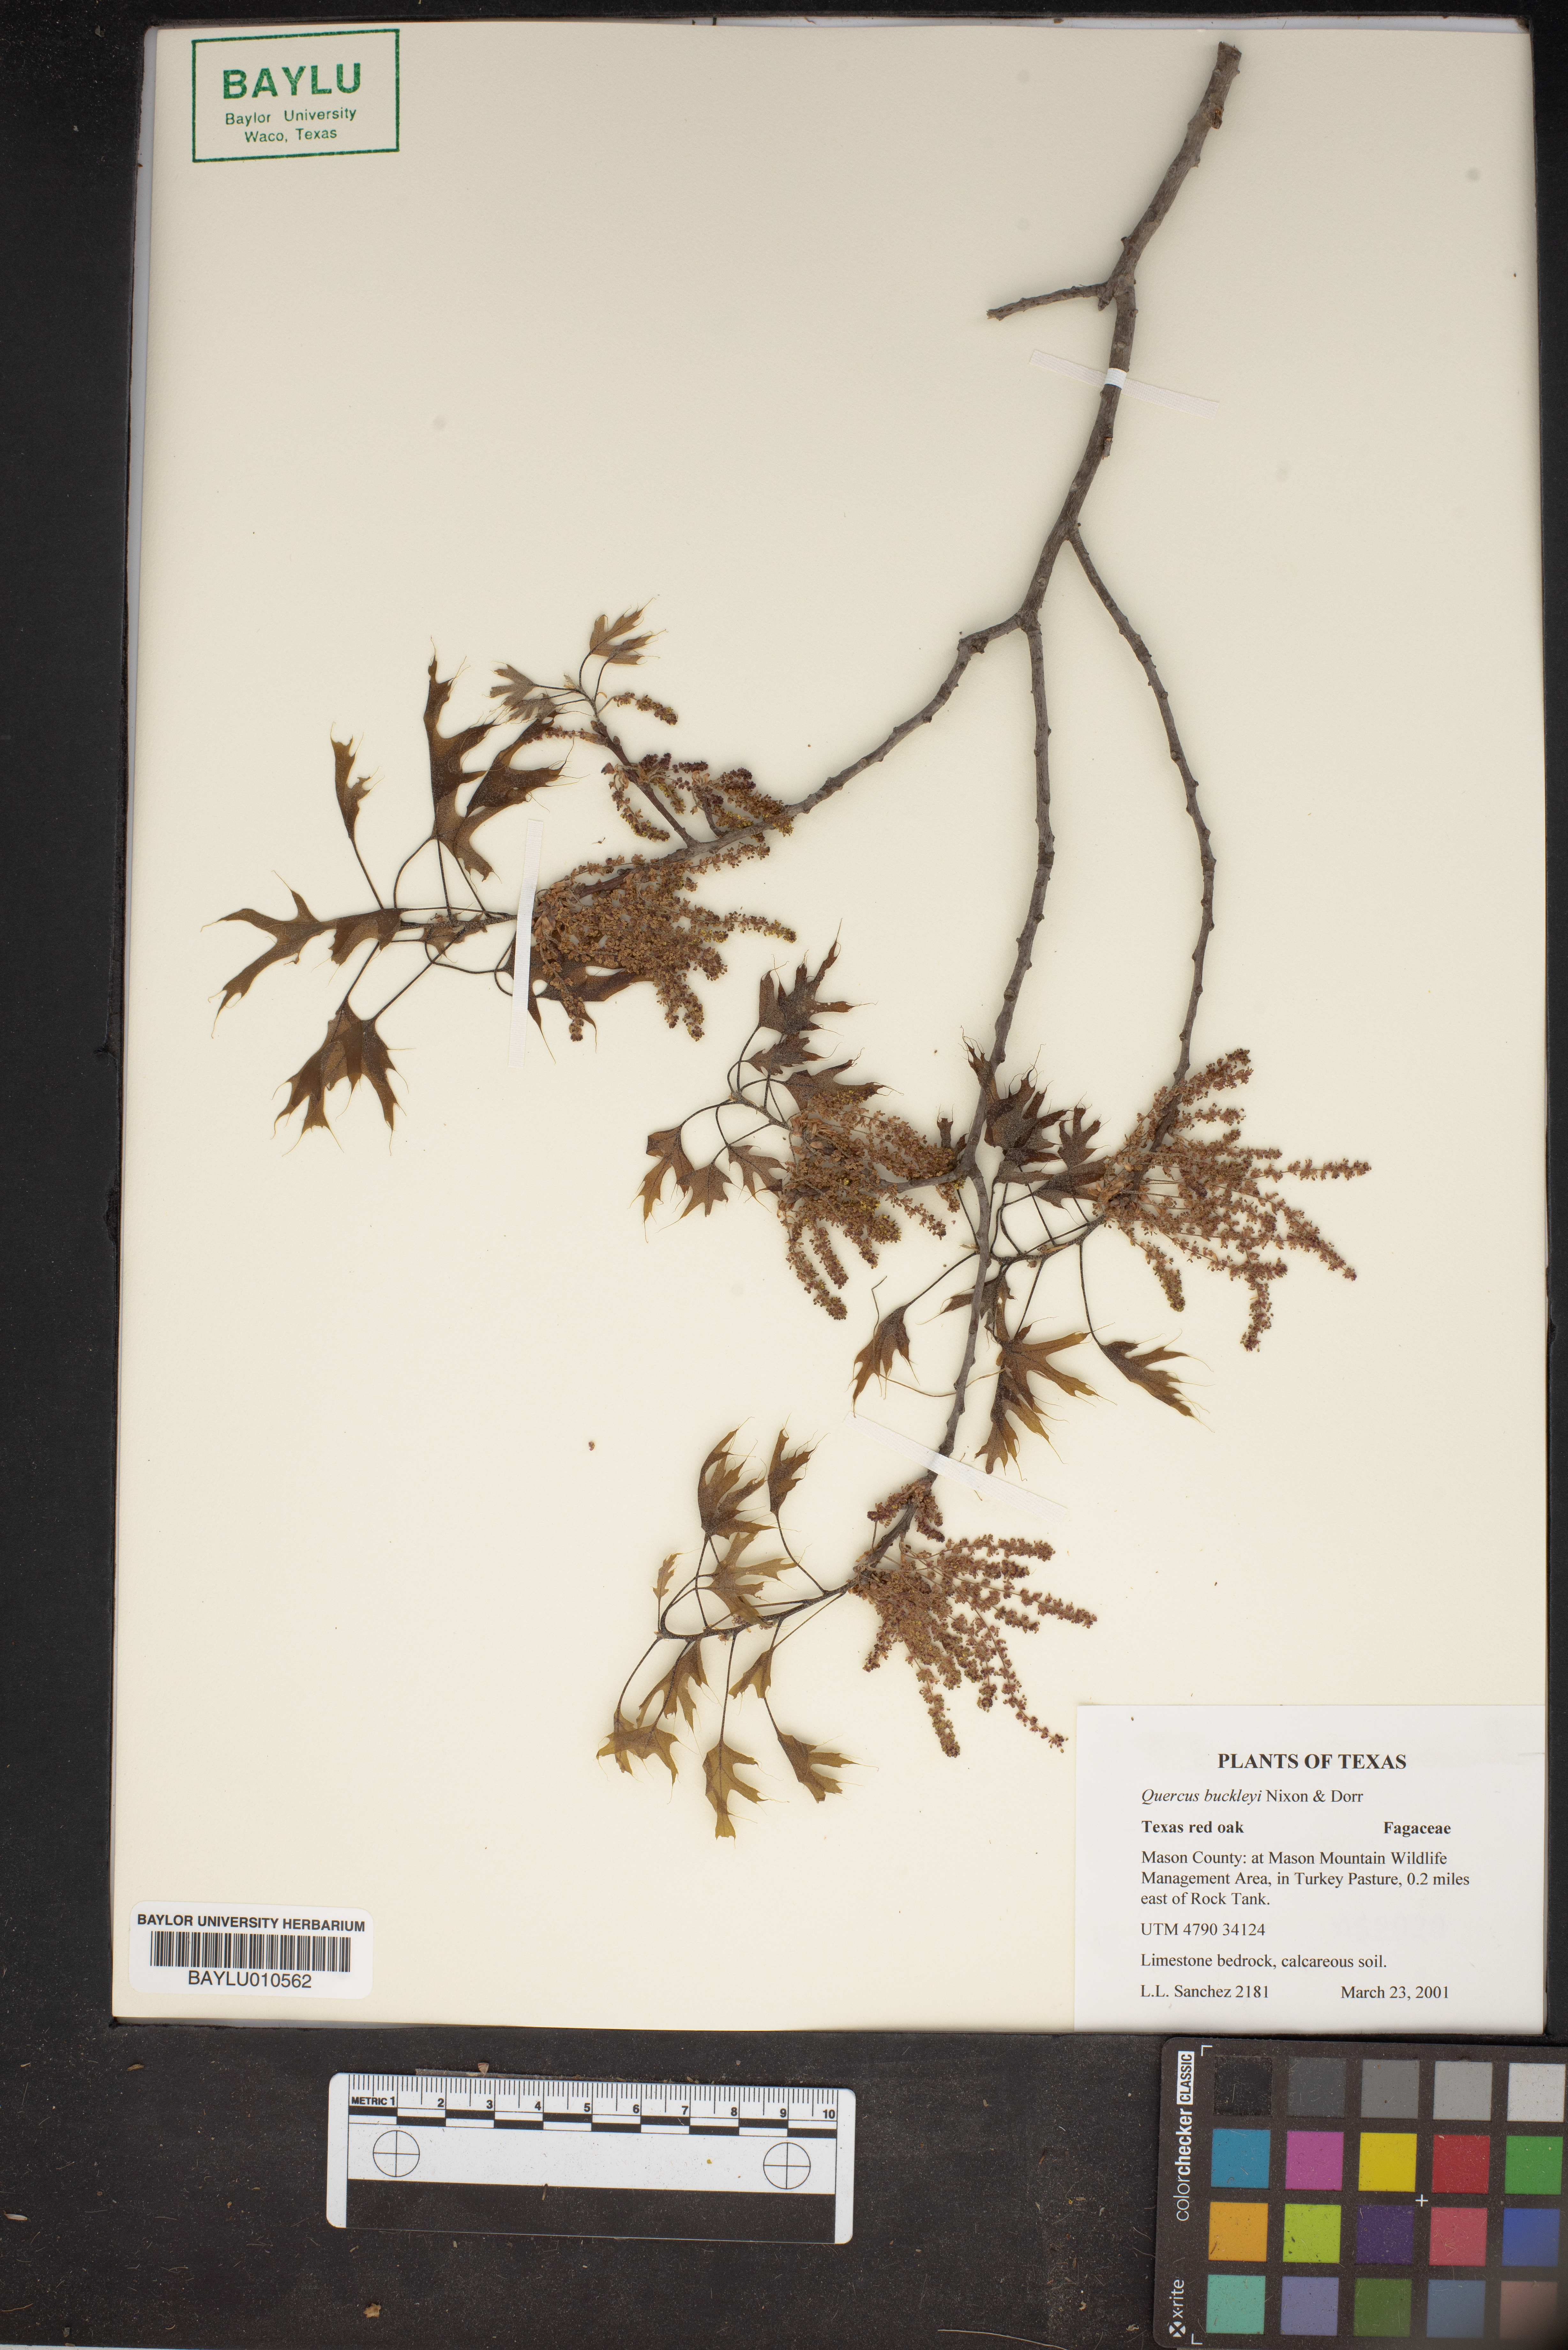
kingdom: Plantae
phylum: Tracheophyta
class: Magnoliopsida
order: Fagales
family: Fagaceae
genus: Quercus
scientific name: Quercus buckleyi
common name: Buckley oak
